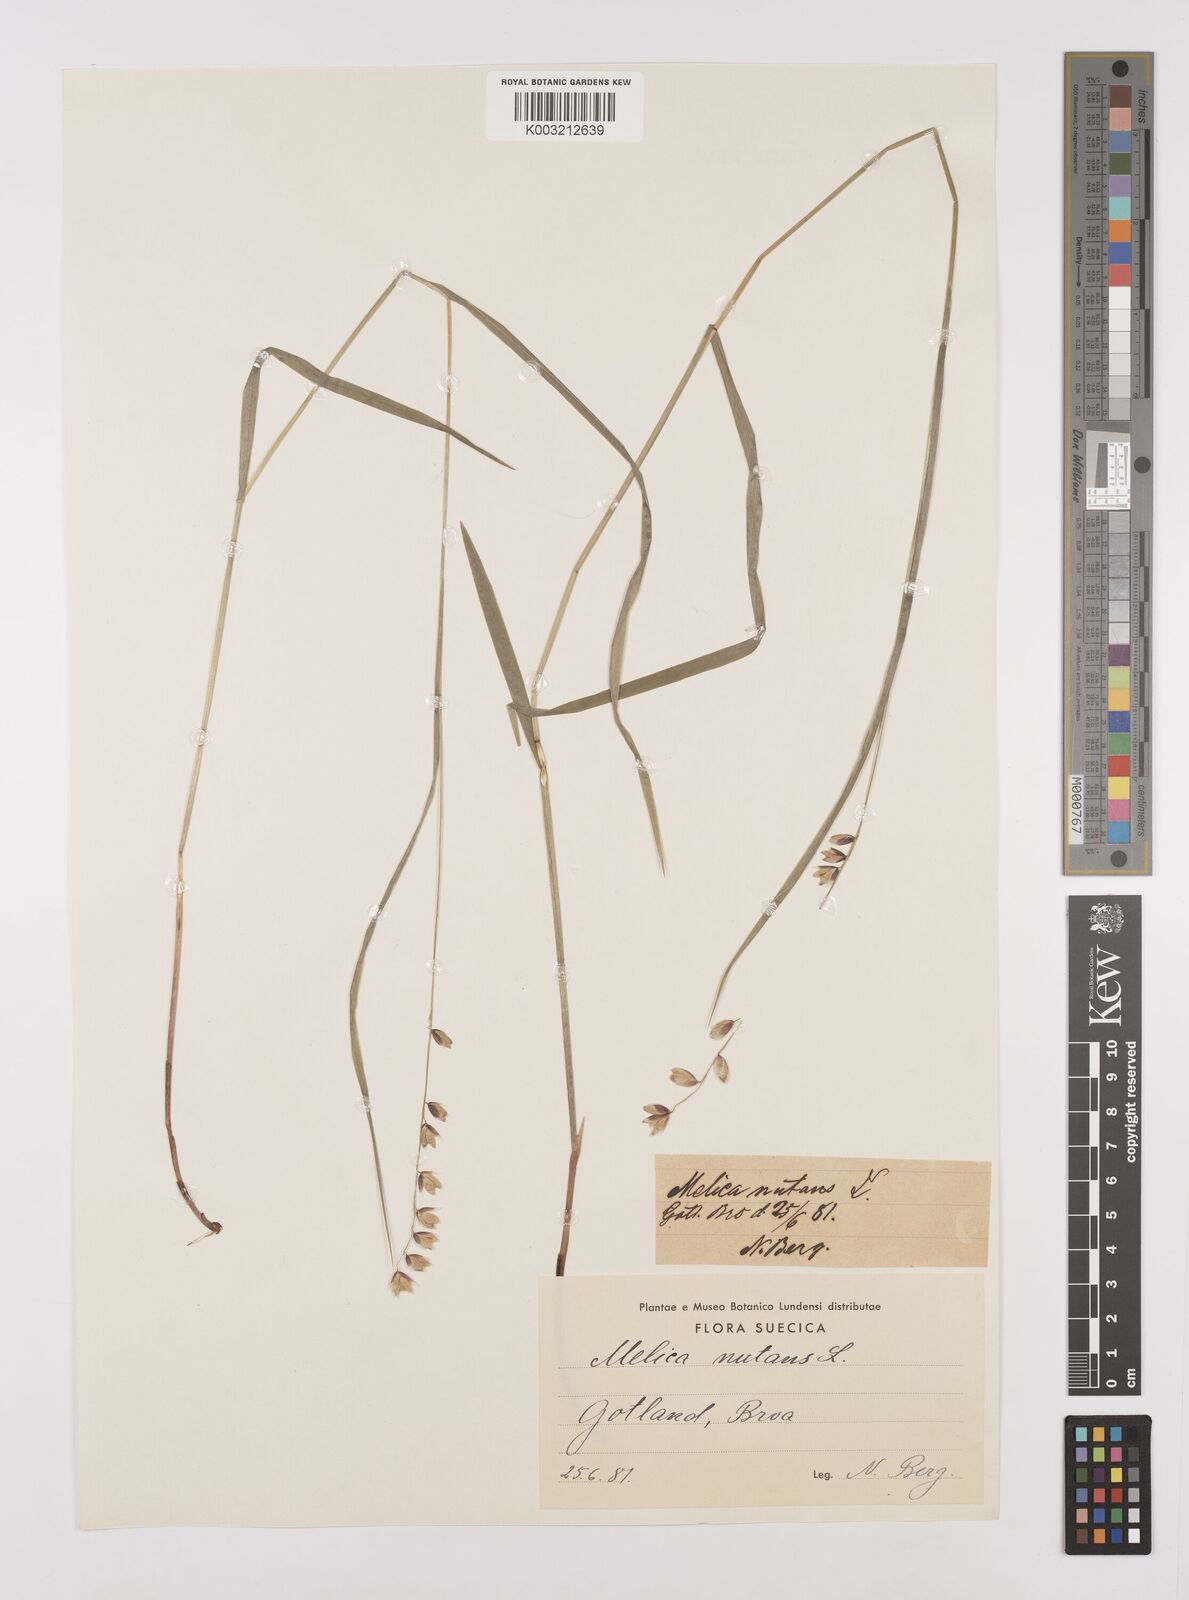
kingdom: Plantae
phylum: Tracheophyta
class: Liliopsida
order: Poales
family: Poaceae
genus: Melica
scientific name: Melica
